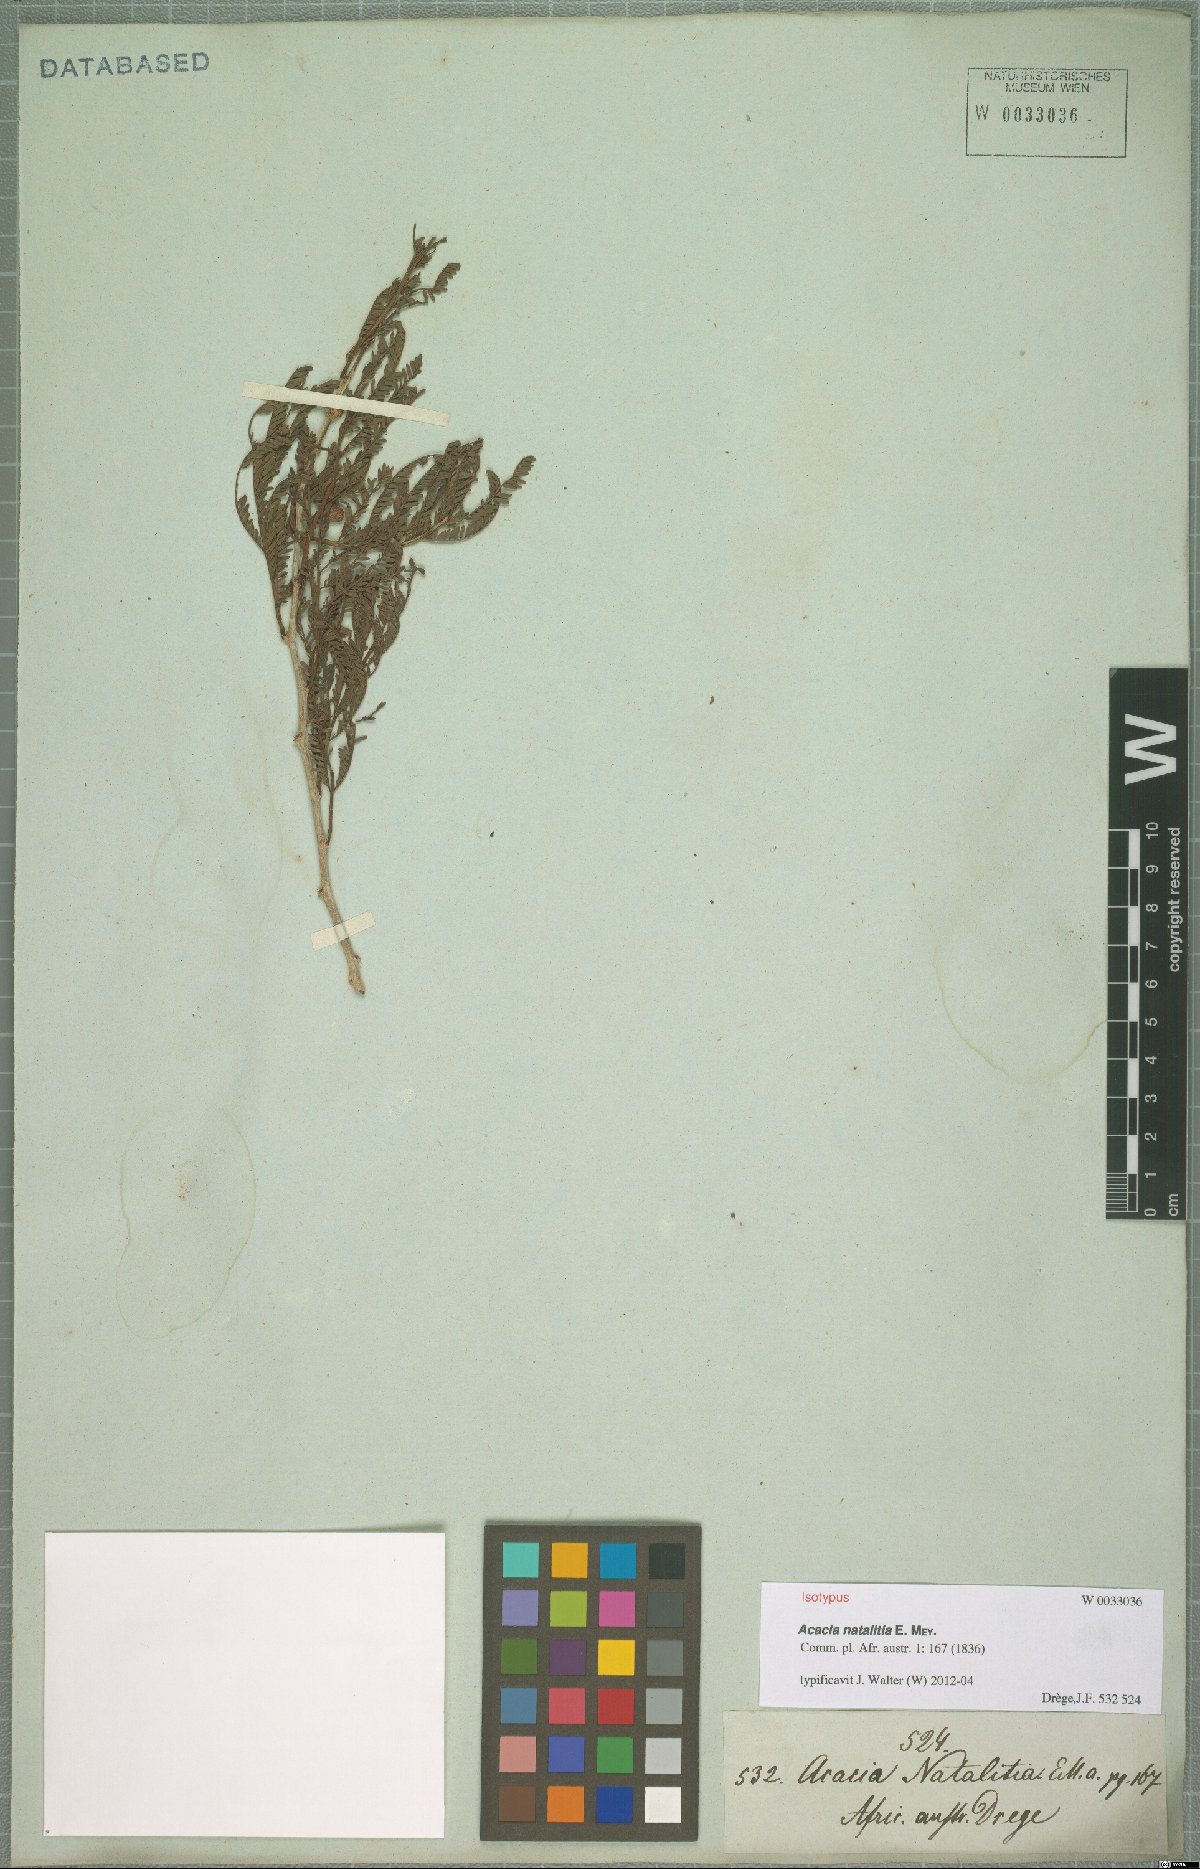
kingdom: Plantae
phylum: Tracheophyta
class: Magnoliopsida
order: Fabales
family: Fabaceae
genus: Vachellia
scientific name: Vachellia natalitia
